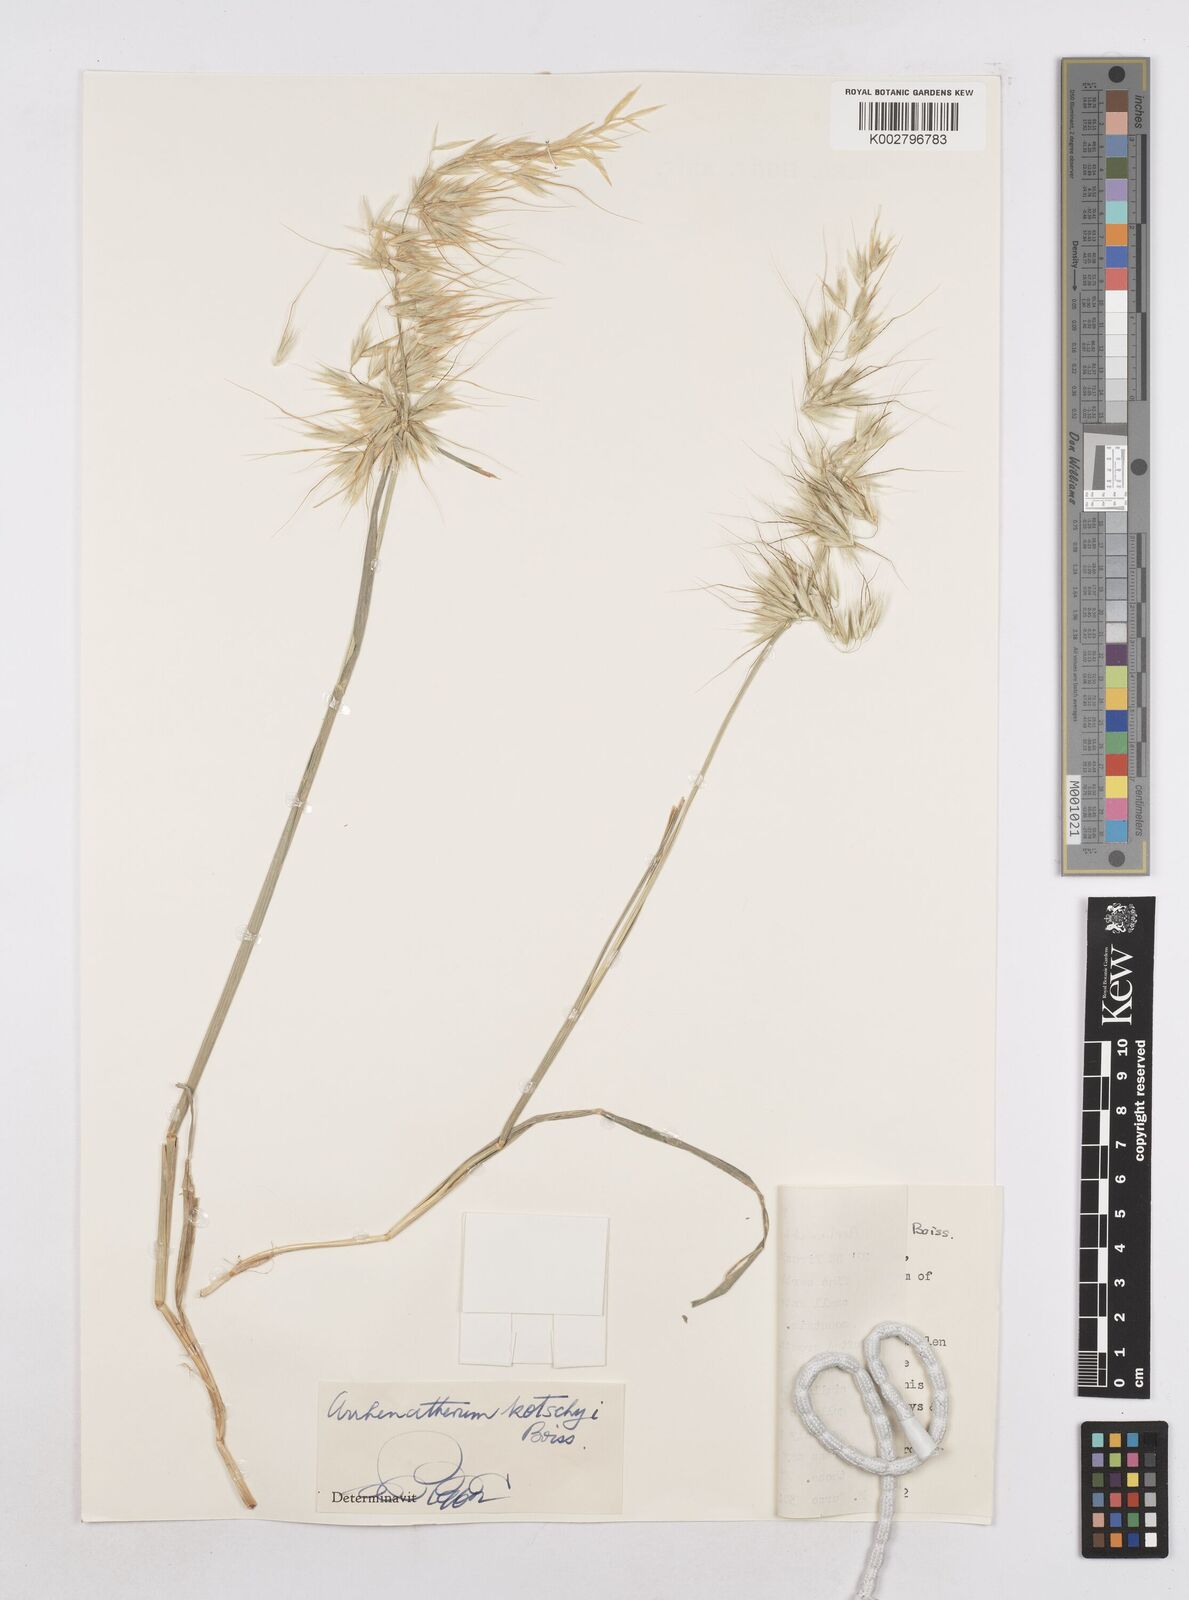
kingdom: Plantae
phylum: Tracheophyta
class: Liliopsida
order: Poales
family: Poaceae
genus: Arrhenatherum
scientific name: Arrhenatherum kotschyi
